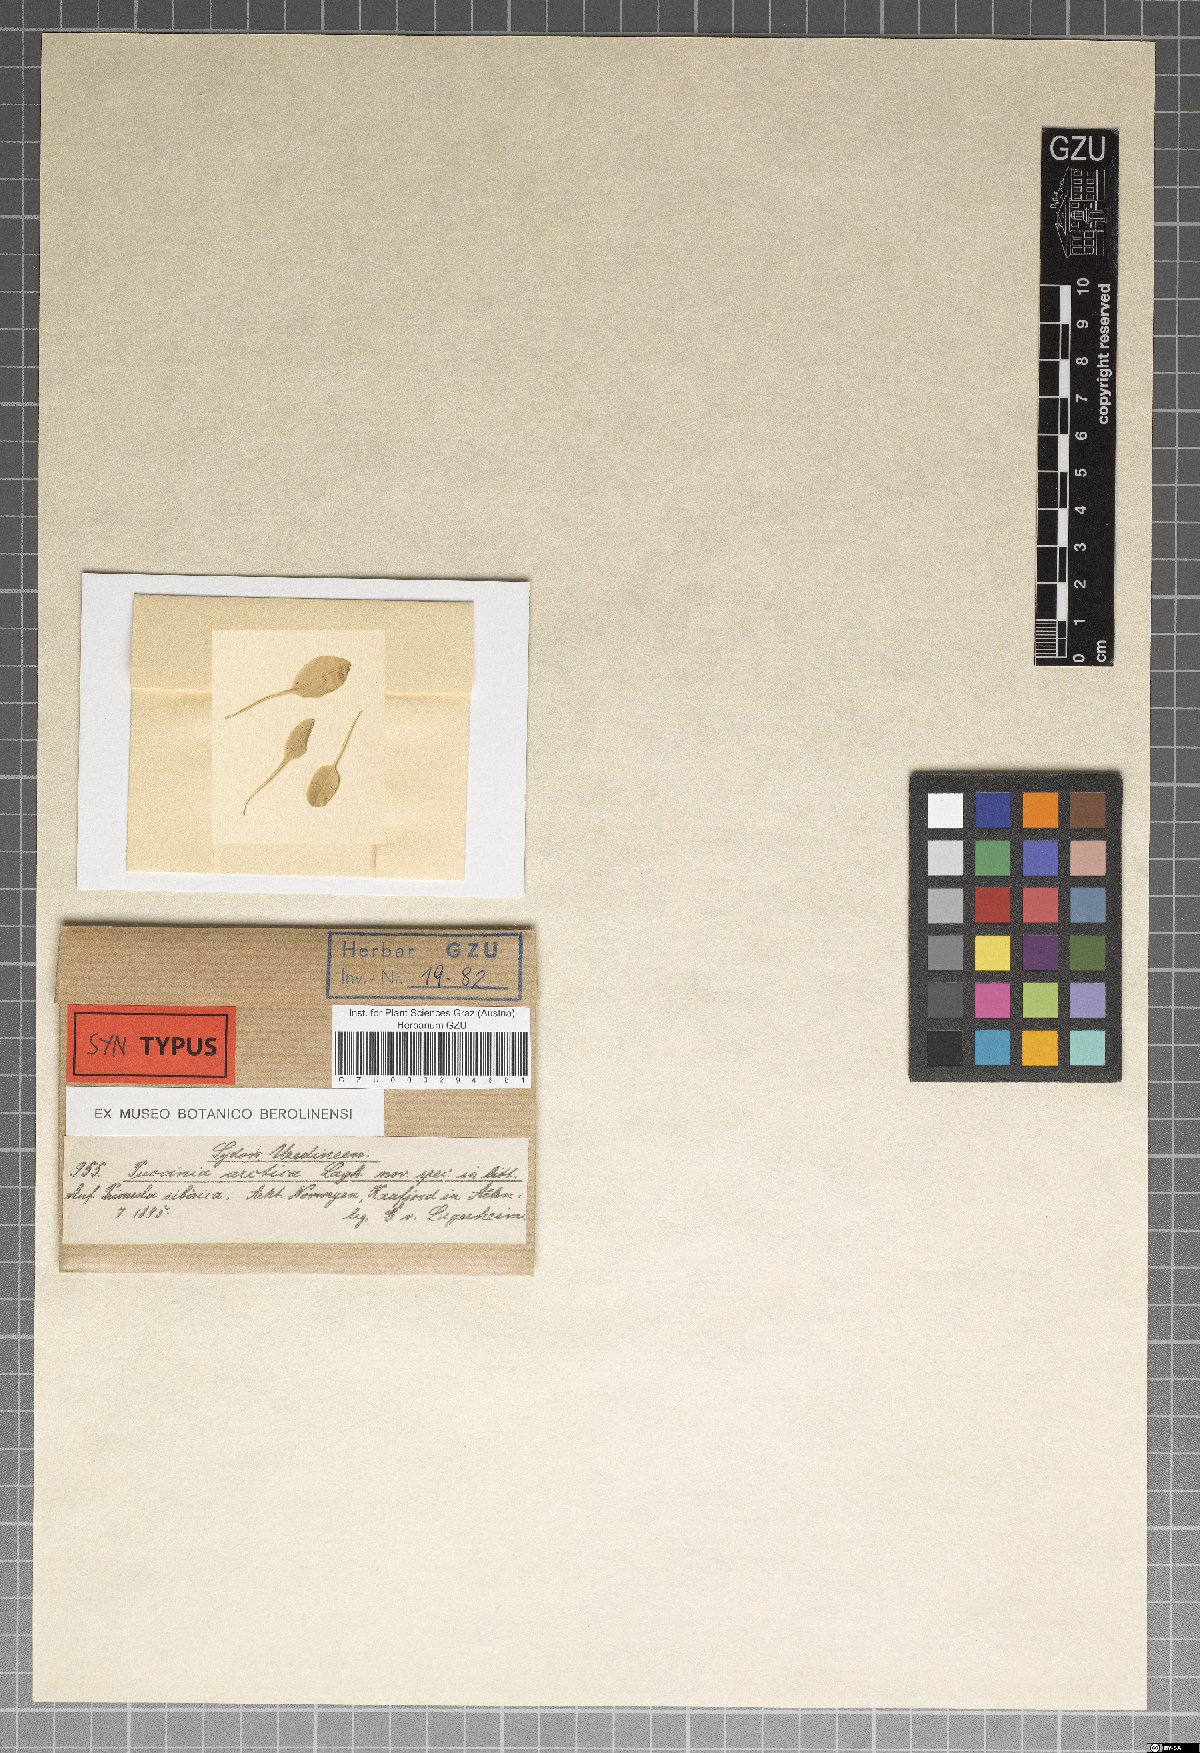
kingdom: Fungi
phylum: Basidiomycota
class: Pucciniomycetes
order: Pucciniales
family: Pucciniaceae
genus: Puccinia
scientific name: Puccinia arctica
